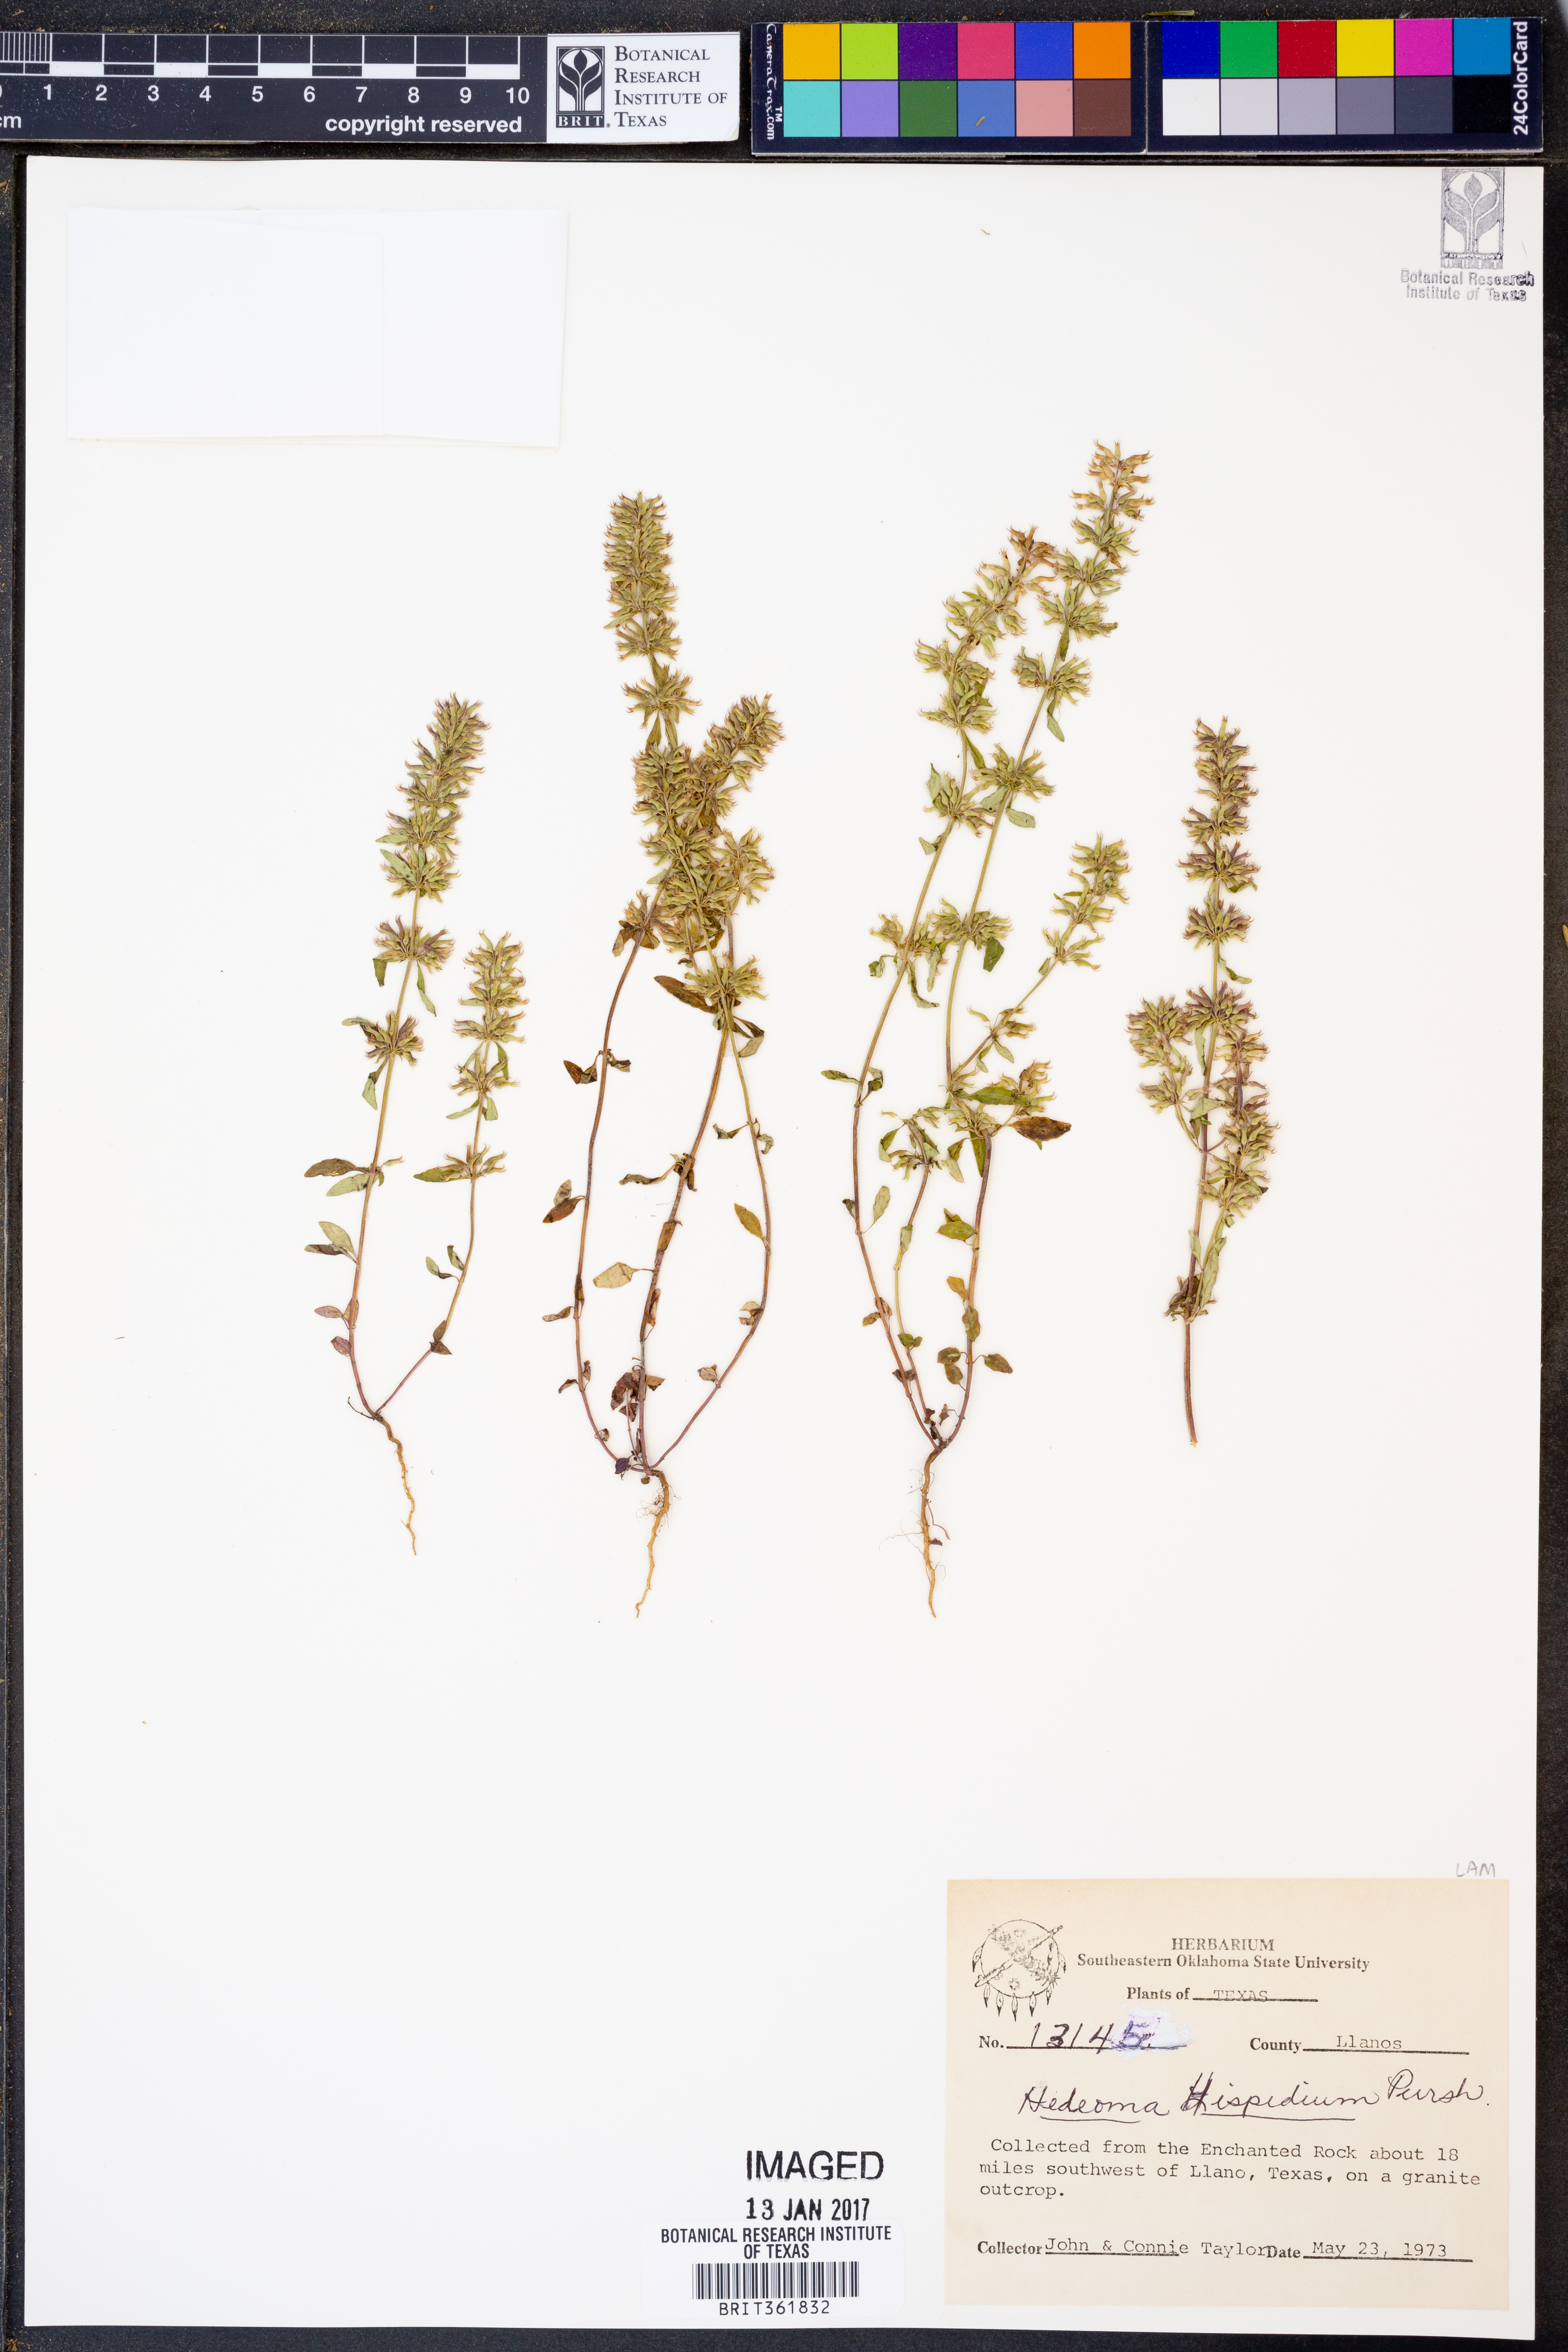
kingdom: Plantae
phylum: Tracheophyta
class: Magnoliopsida
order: Lamiales
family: Lamiaceae
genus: Hedeoma
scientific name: Hedeoma hispida
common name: Mock pennyroyal
